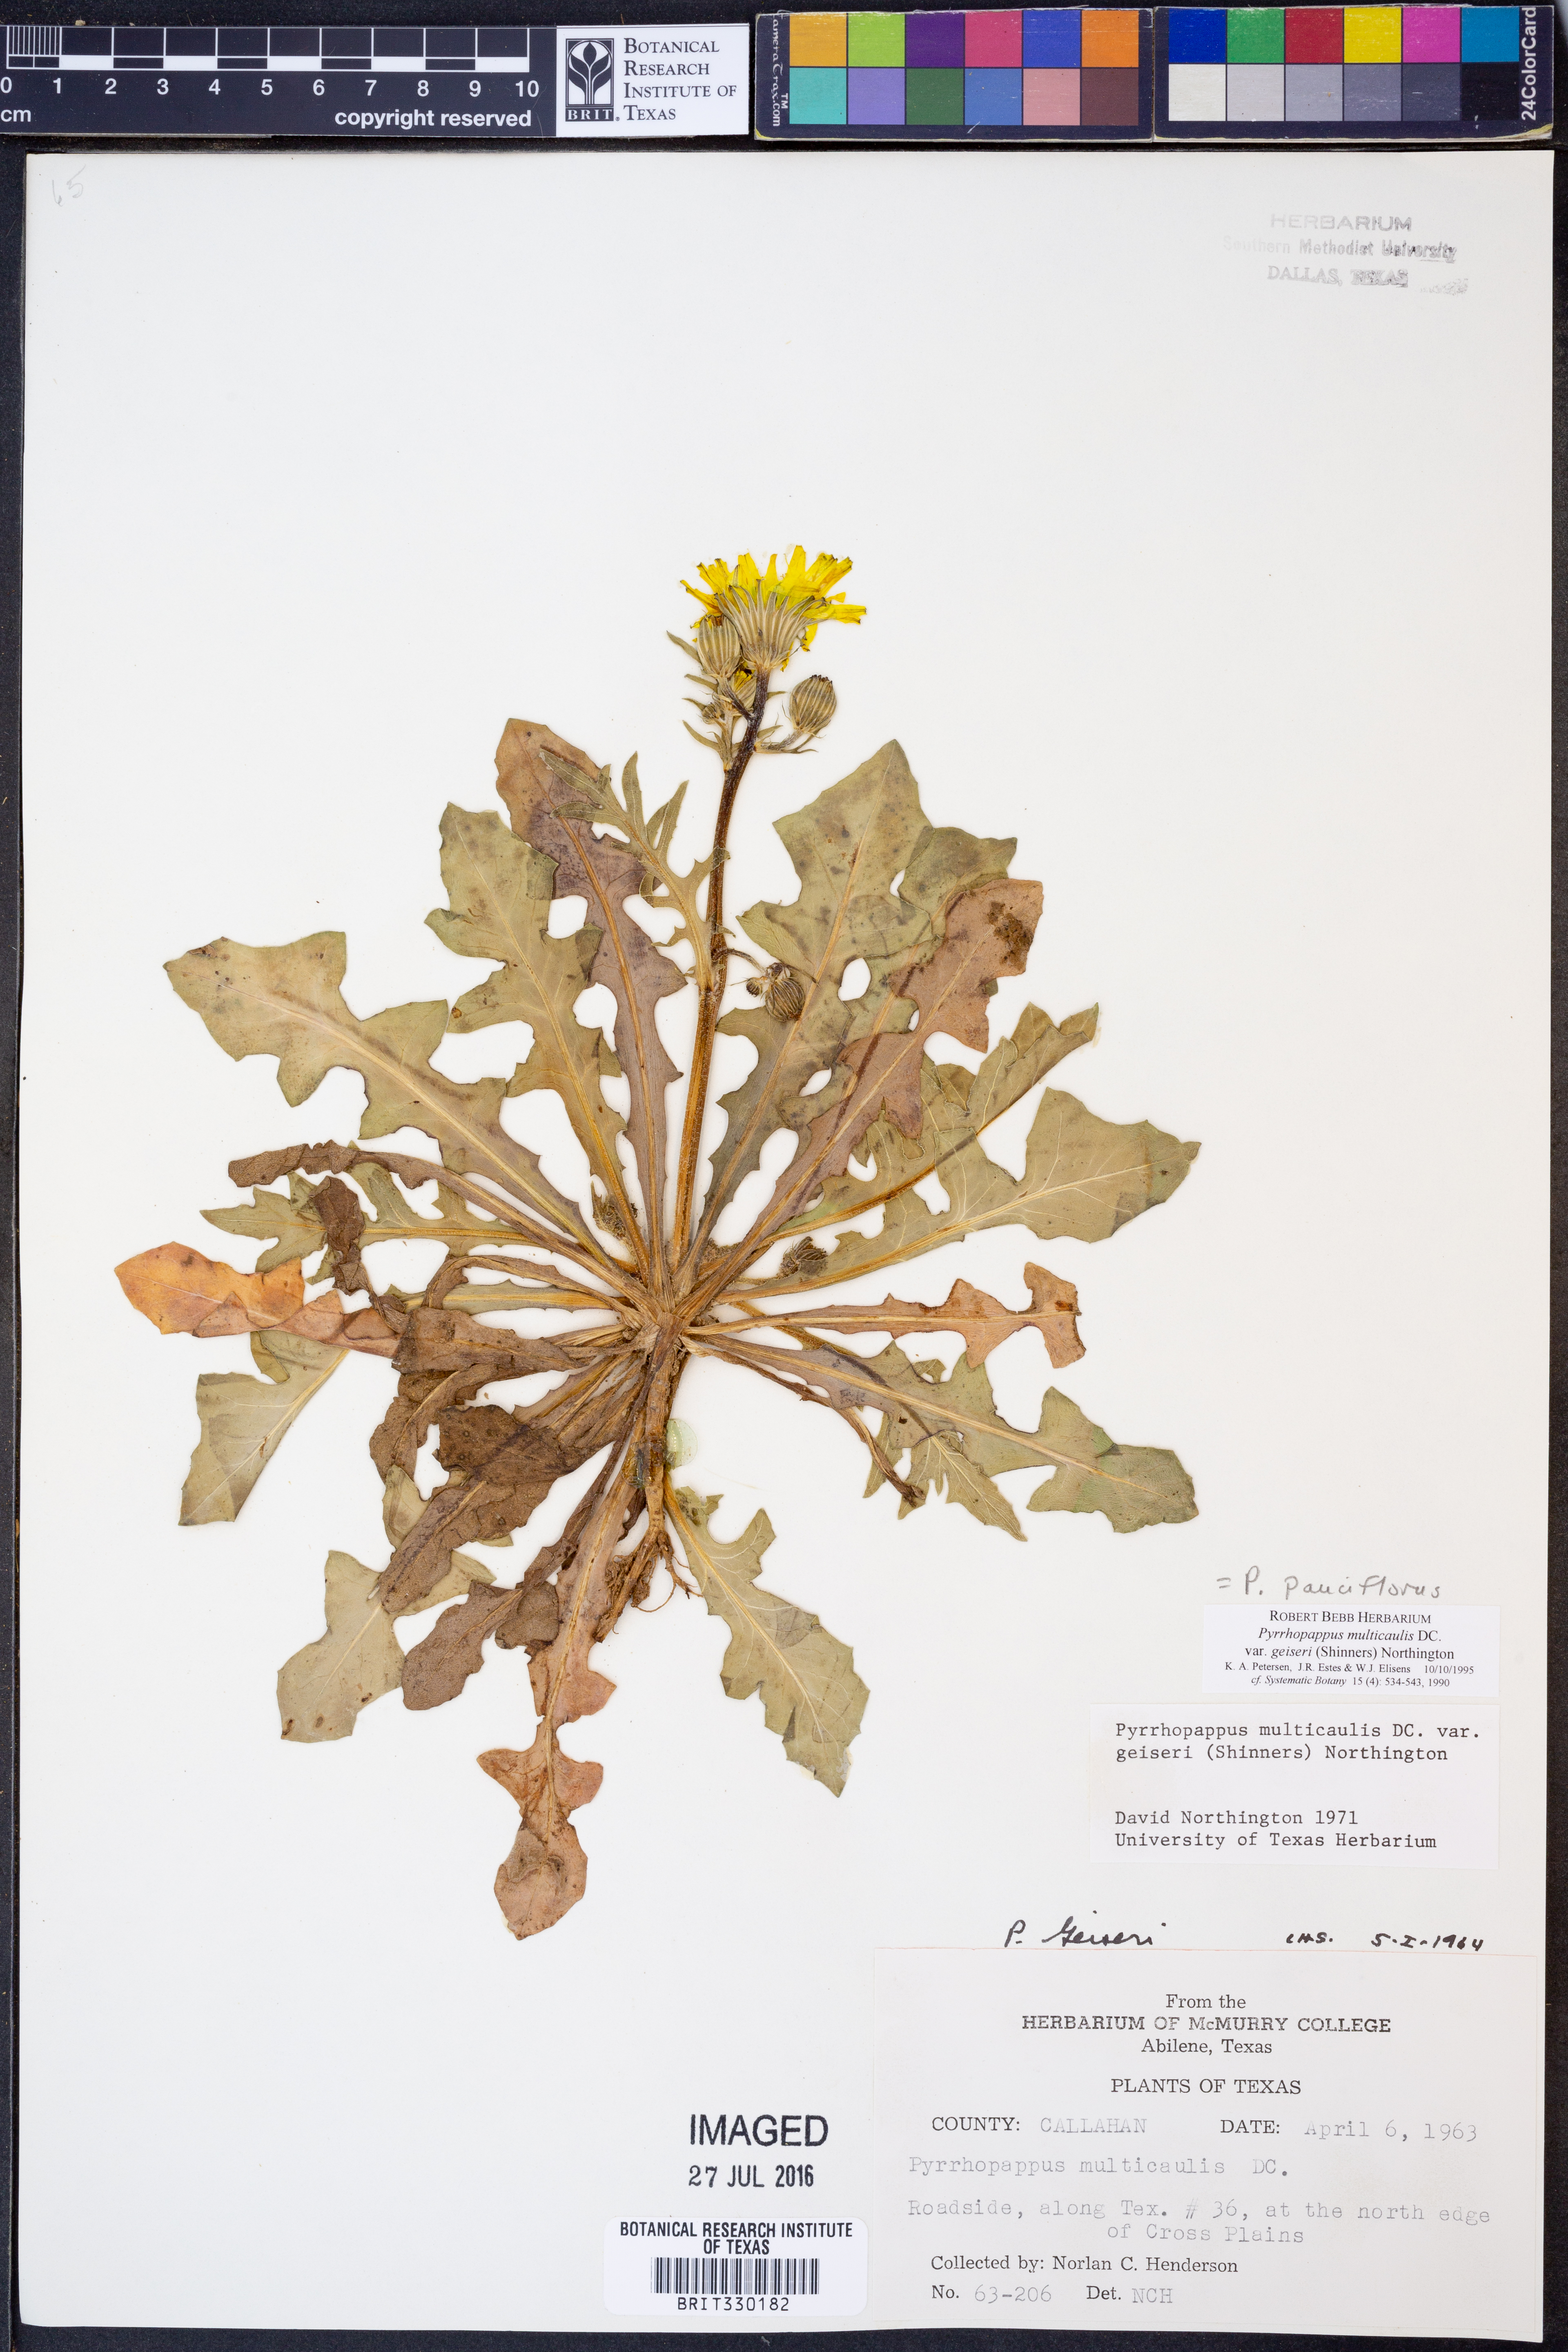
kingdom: Plantae
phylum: Tracheophyta
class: Magnoliopsida
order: Asterales
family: Asteraceae
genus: Pyrrhopappus
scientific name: Pyrrhopappus pauciflorus
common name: Texas false dandelion
